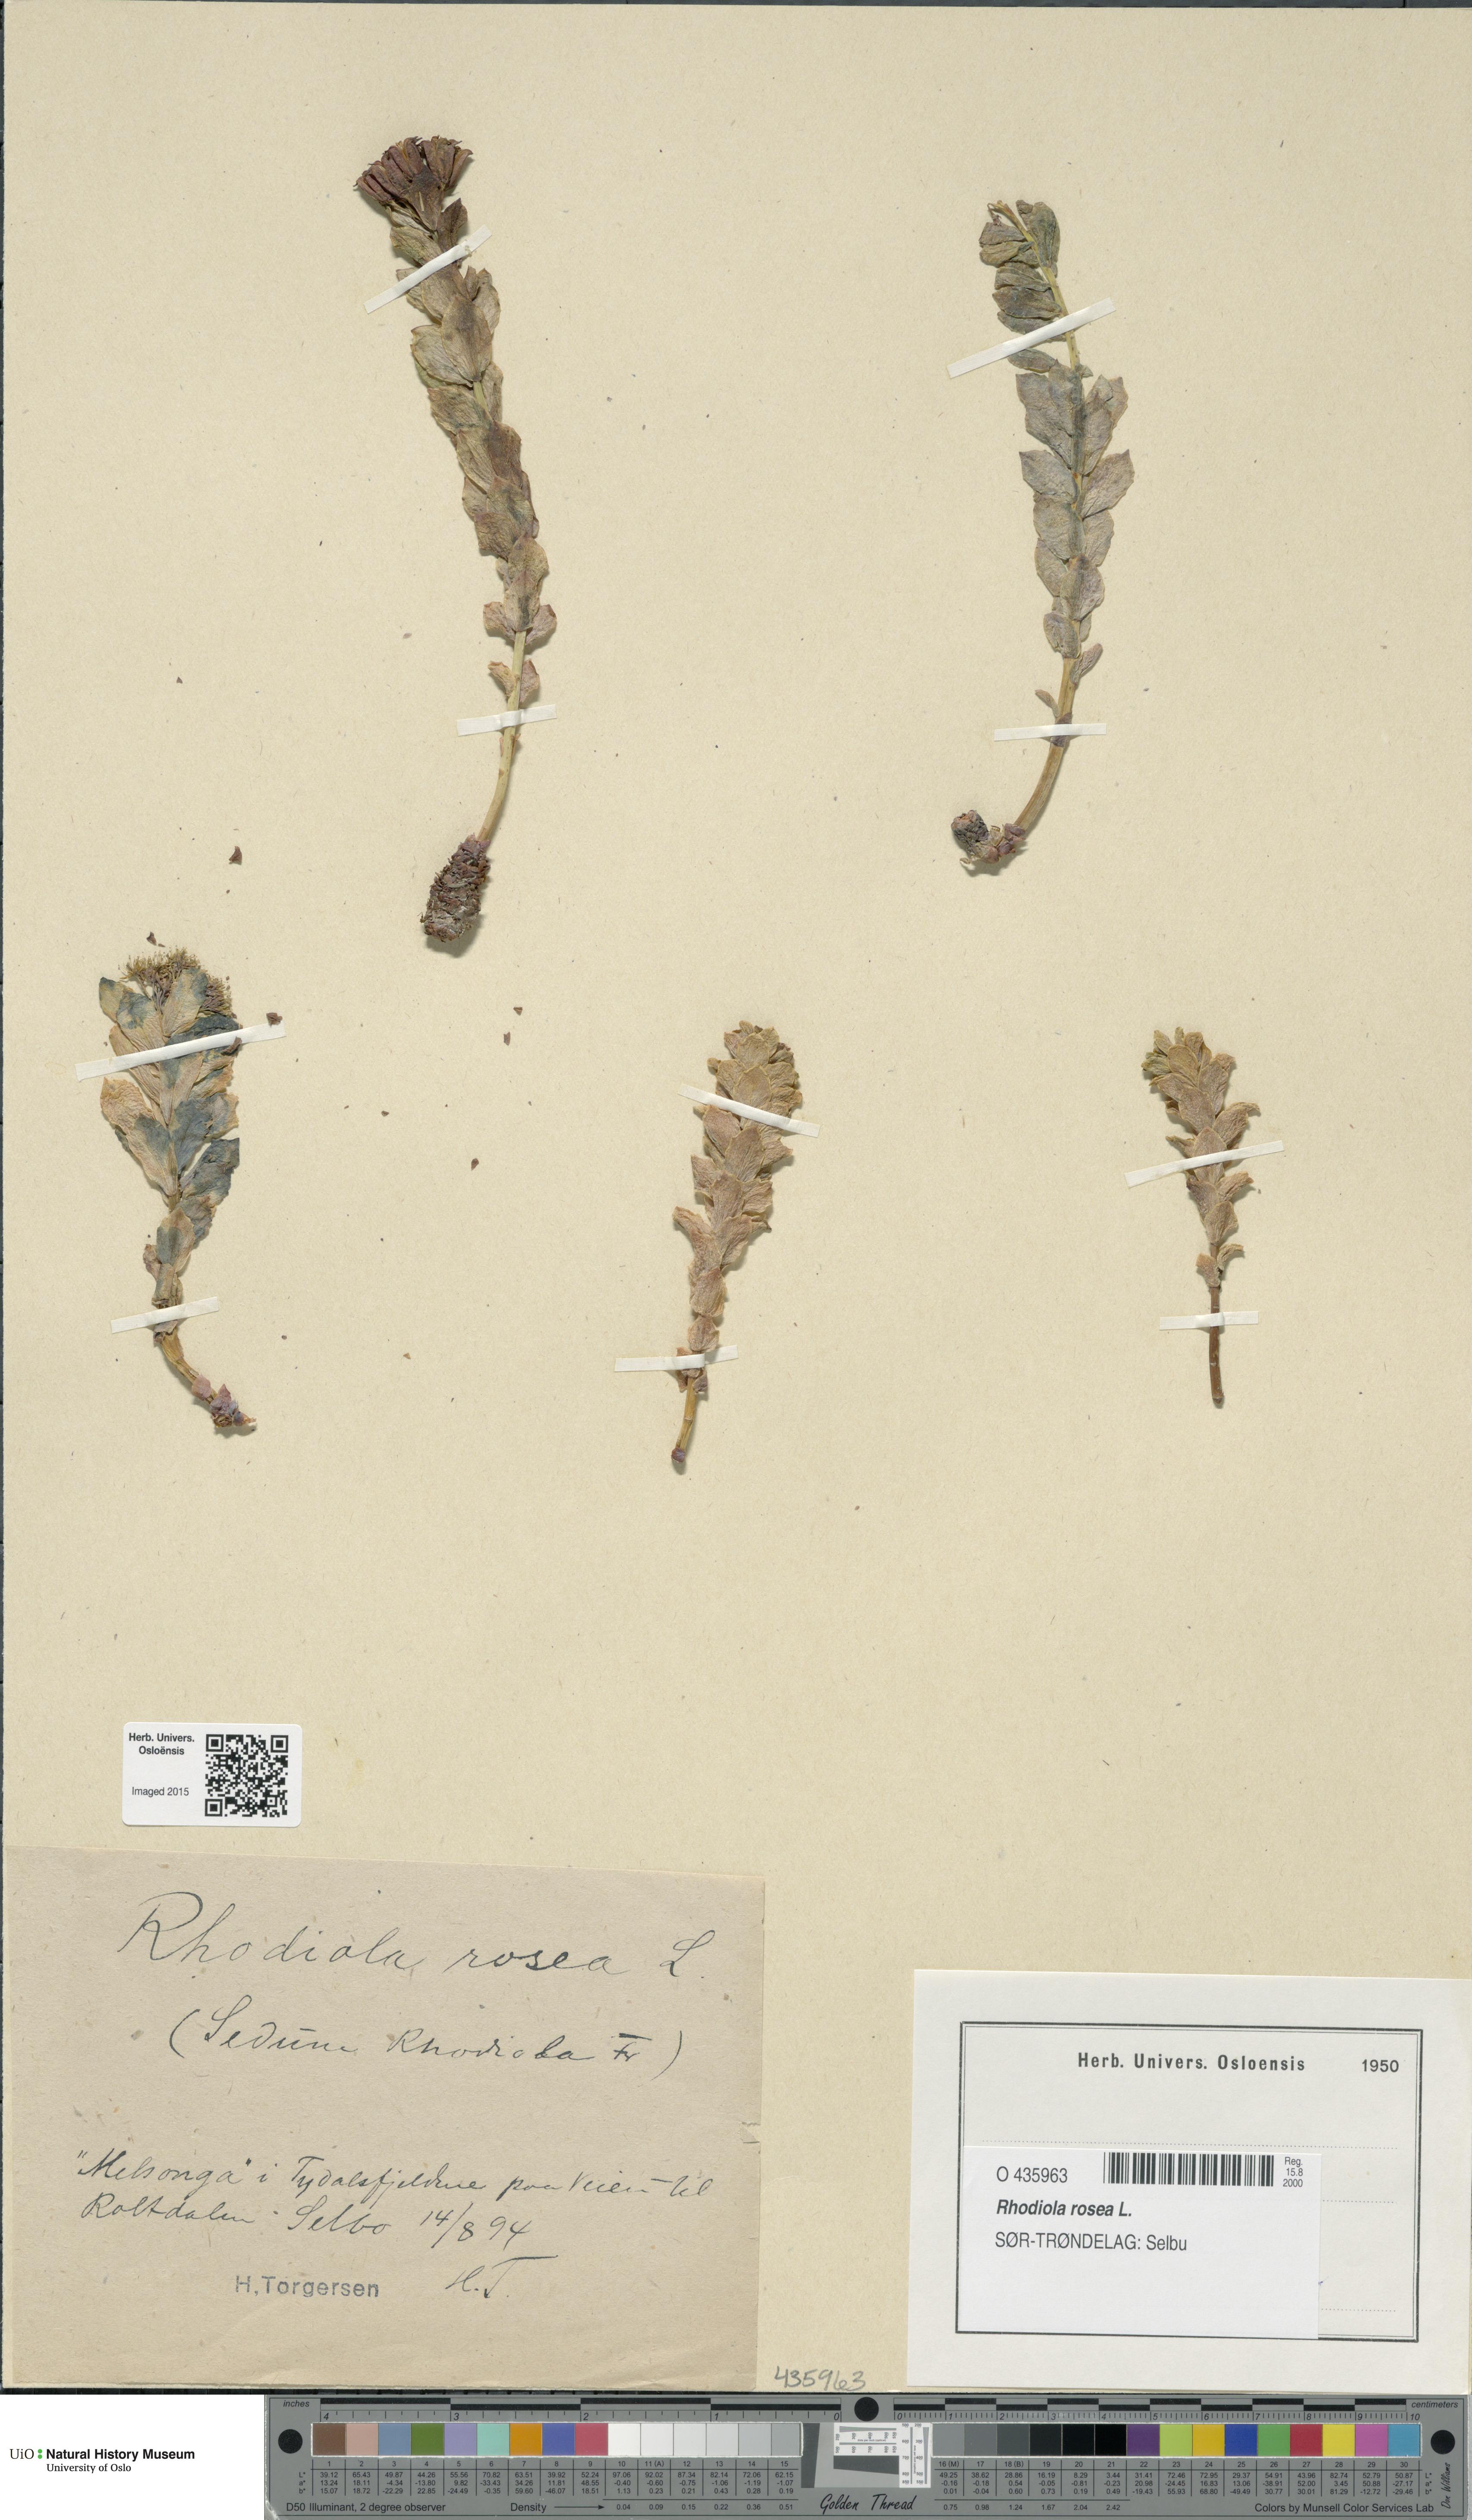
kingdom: Plantae
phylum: Tracheophyta
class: Magnoliopsida
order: Saxifragales
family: Crassulaceae
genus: Rhodiola
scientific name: Rhodiola rosea
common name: Roseroot
